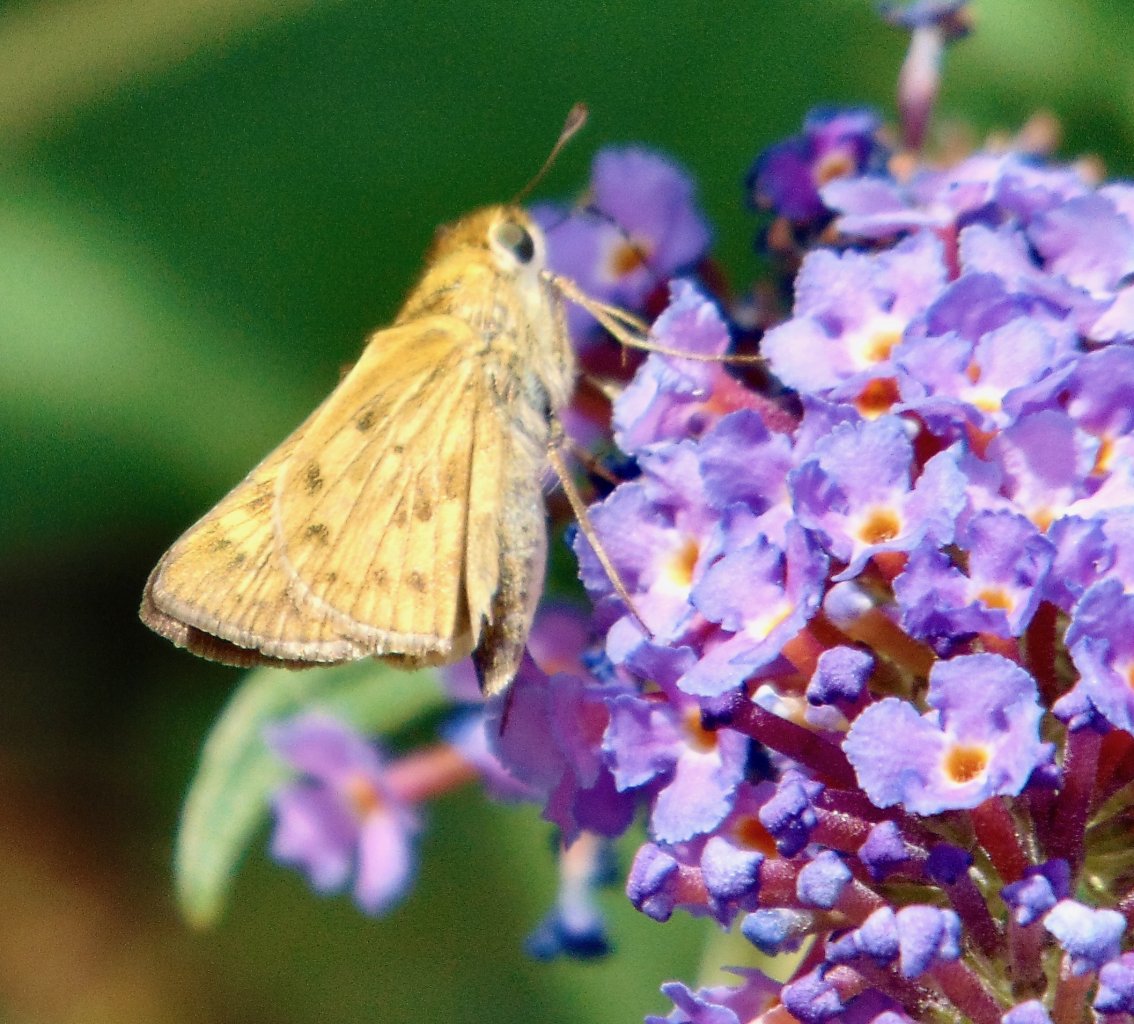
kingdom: Animalia
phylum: Arthropoda
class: Insecta
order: Lepidoptera
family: Hesperiidae
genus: Hylephila
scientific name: Hylephila phyleus
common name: Fiery Skipper
